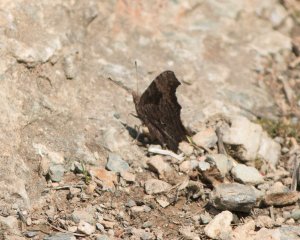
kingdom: Animalia
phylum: Arthropoda
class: Insecta
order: Lepidoptera
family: Nymphalidae
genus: Polygonia
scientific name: Polygonia progne
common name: Gray Comma
